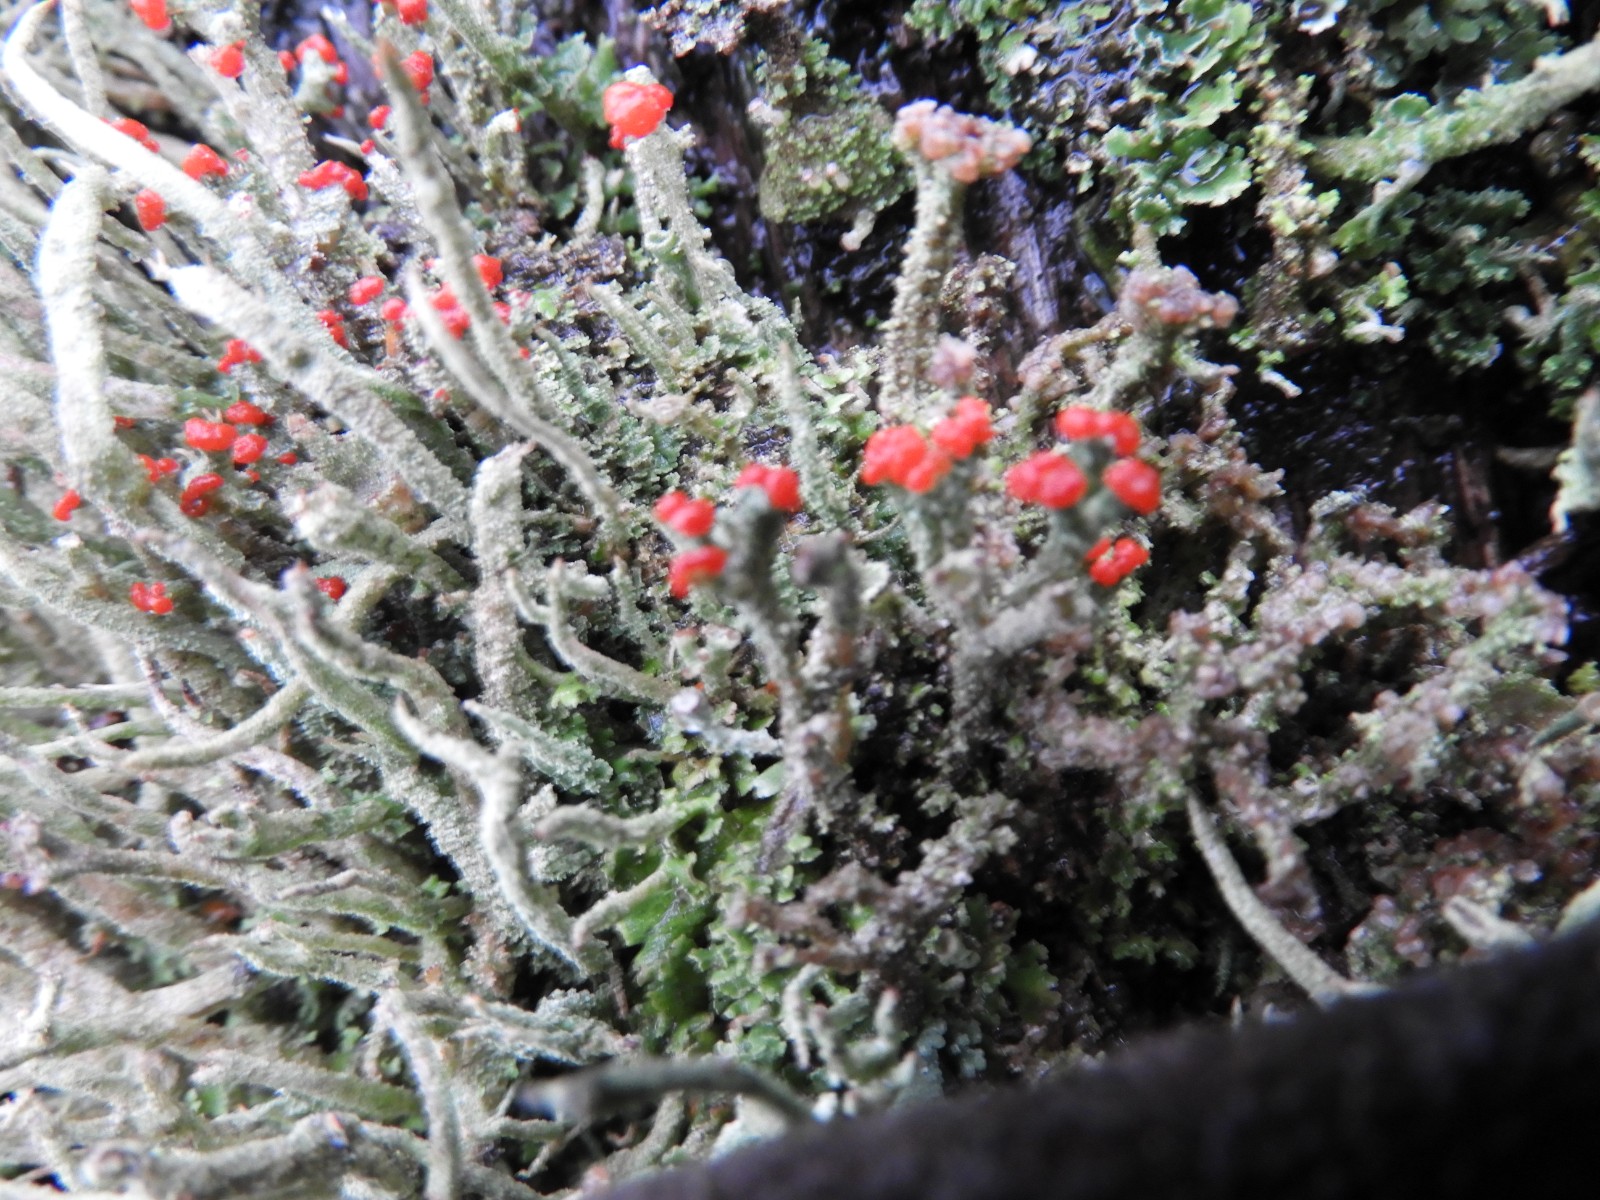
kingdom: Fungi
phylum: Ascomycota
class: Lecanoromycetes
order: Lecanorales
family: Cladoniaceae
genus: Cladonia
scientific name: Cladonia floerkeana
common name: lakrød bægerlav
